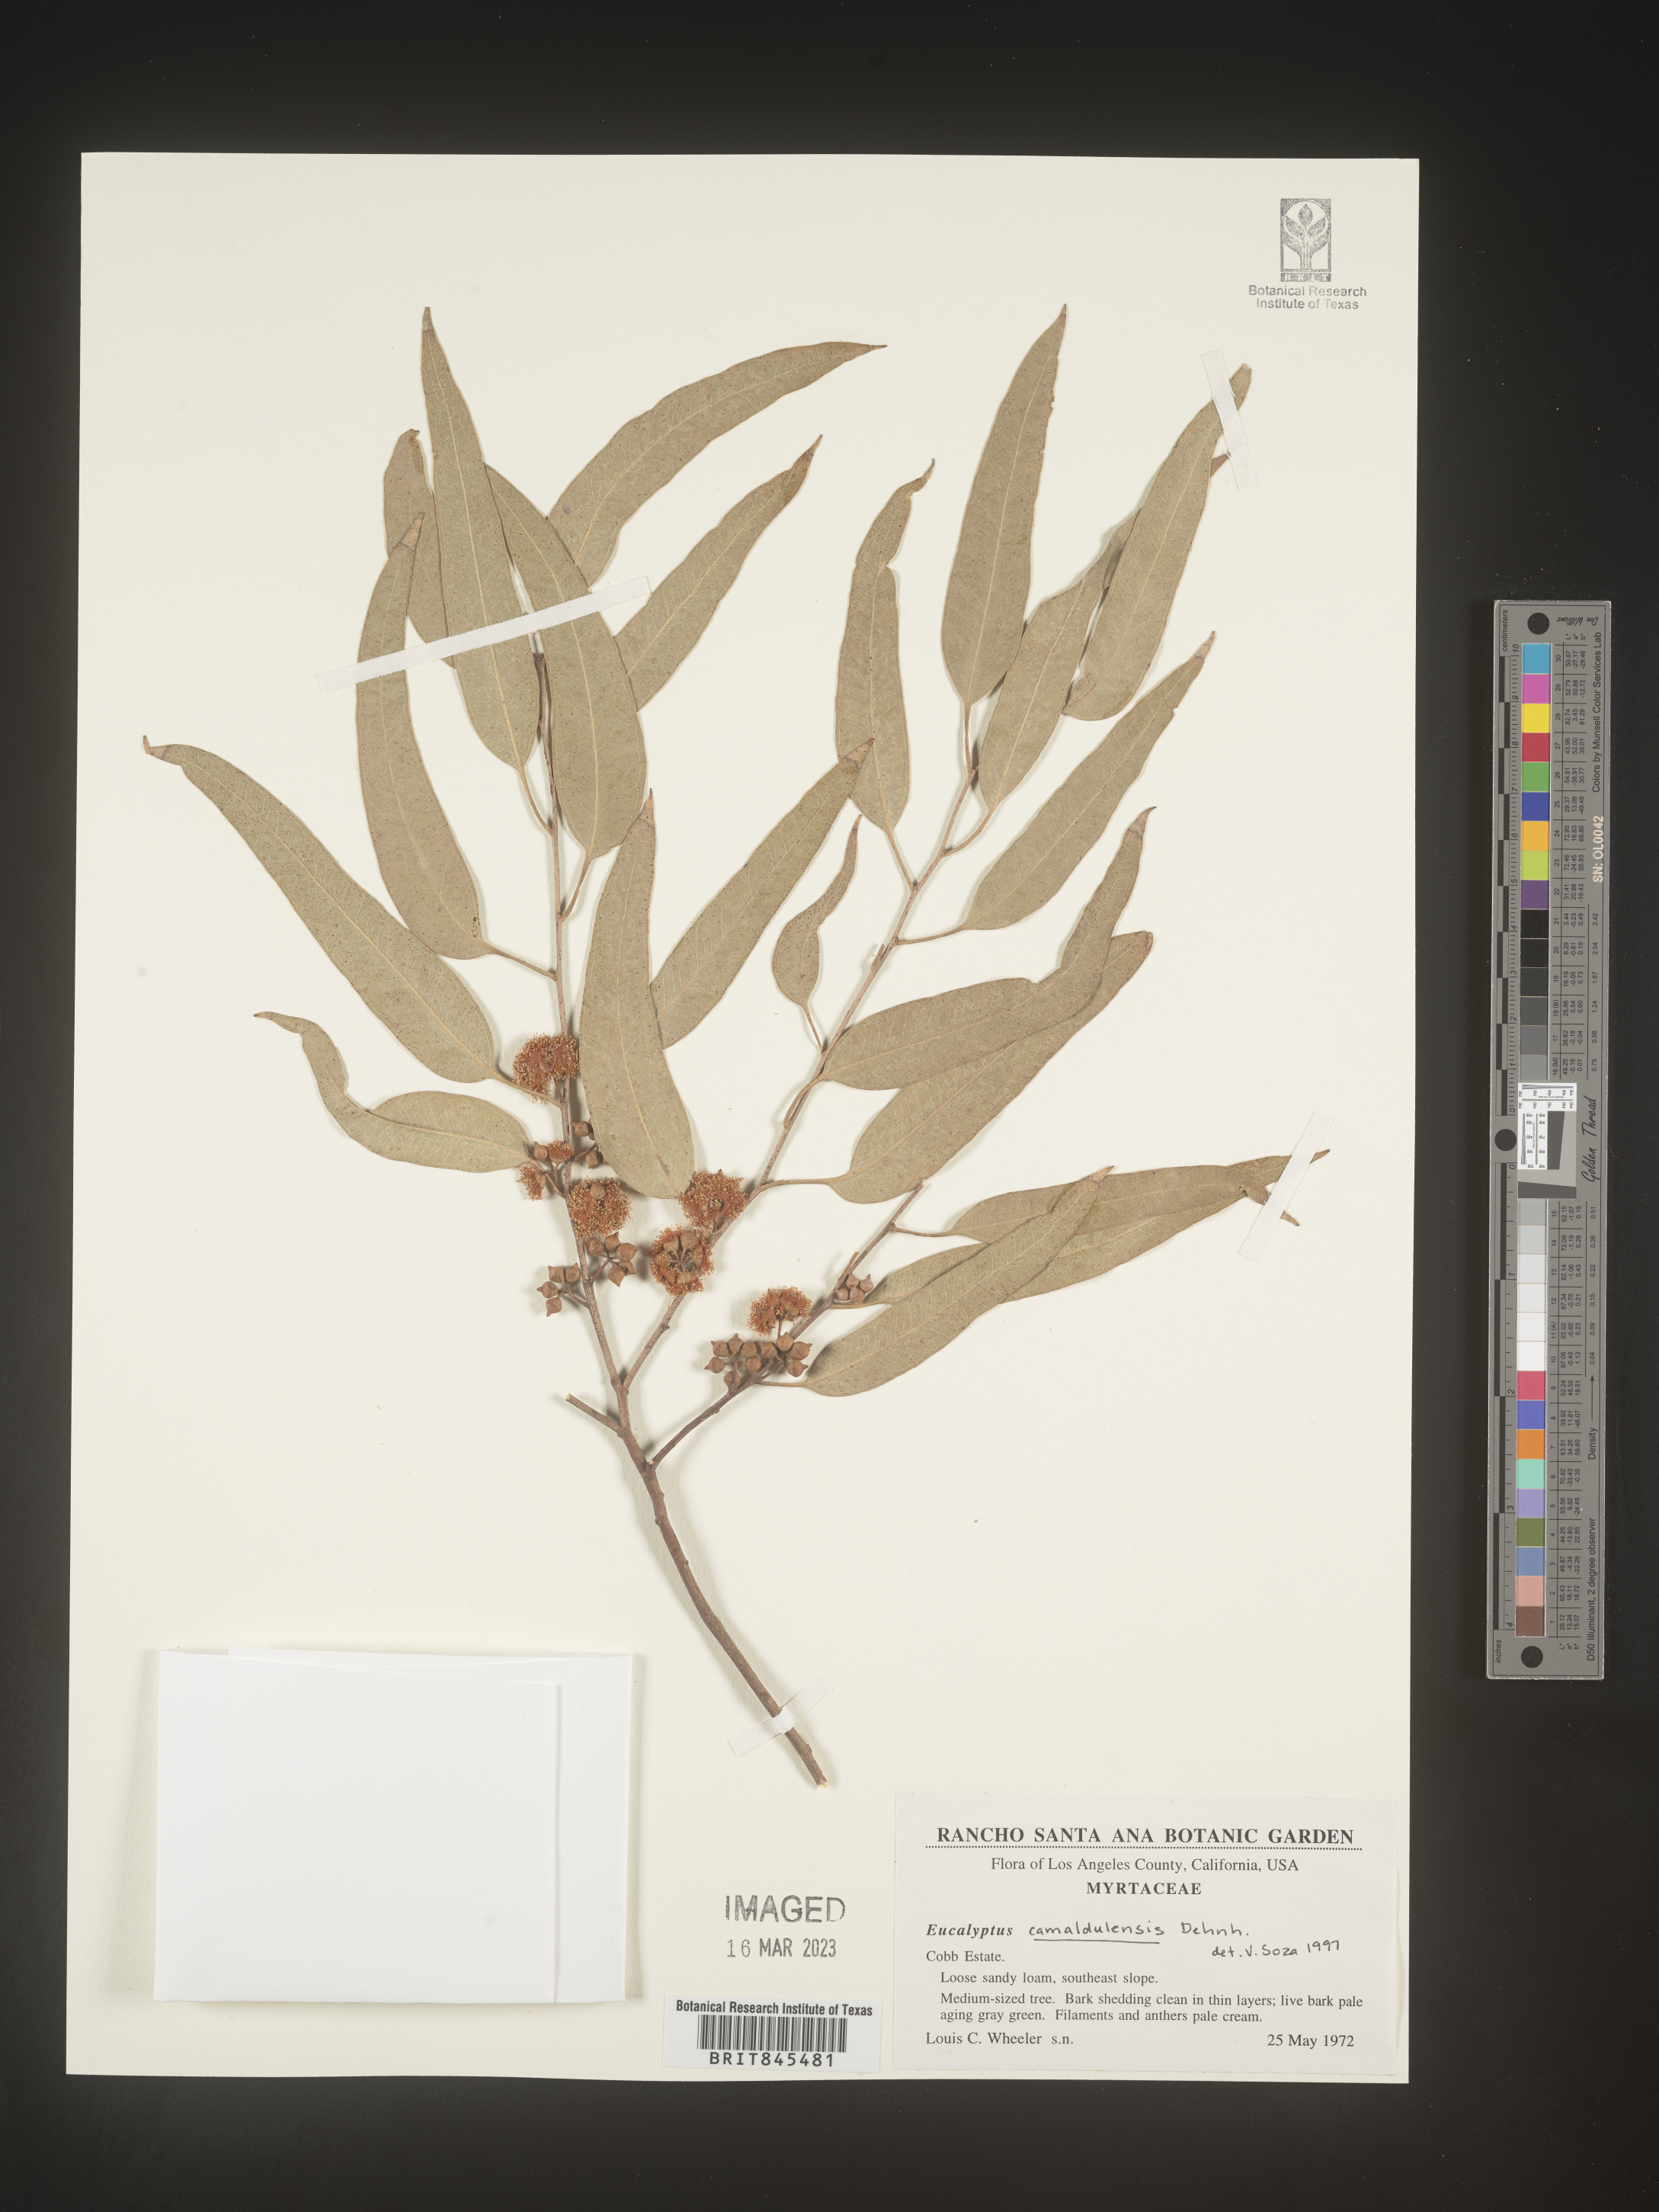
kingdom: Plantae
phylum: Tracheophyta
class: Magnoliopsida
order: Myrtales
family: Myrtaceae
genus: Eucalyptus
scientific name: Eucalyptus
